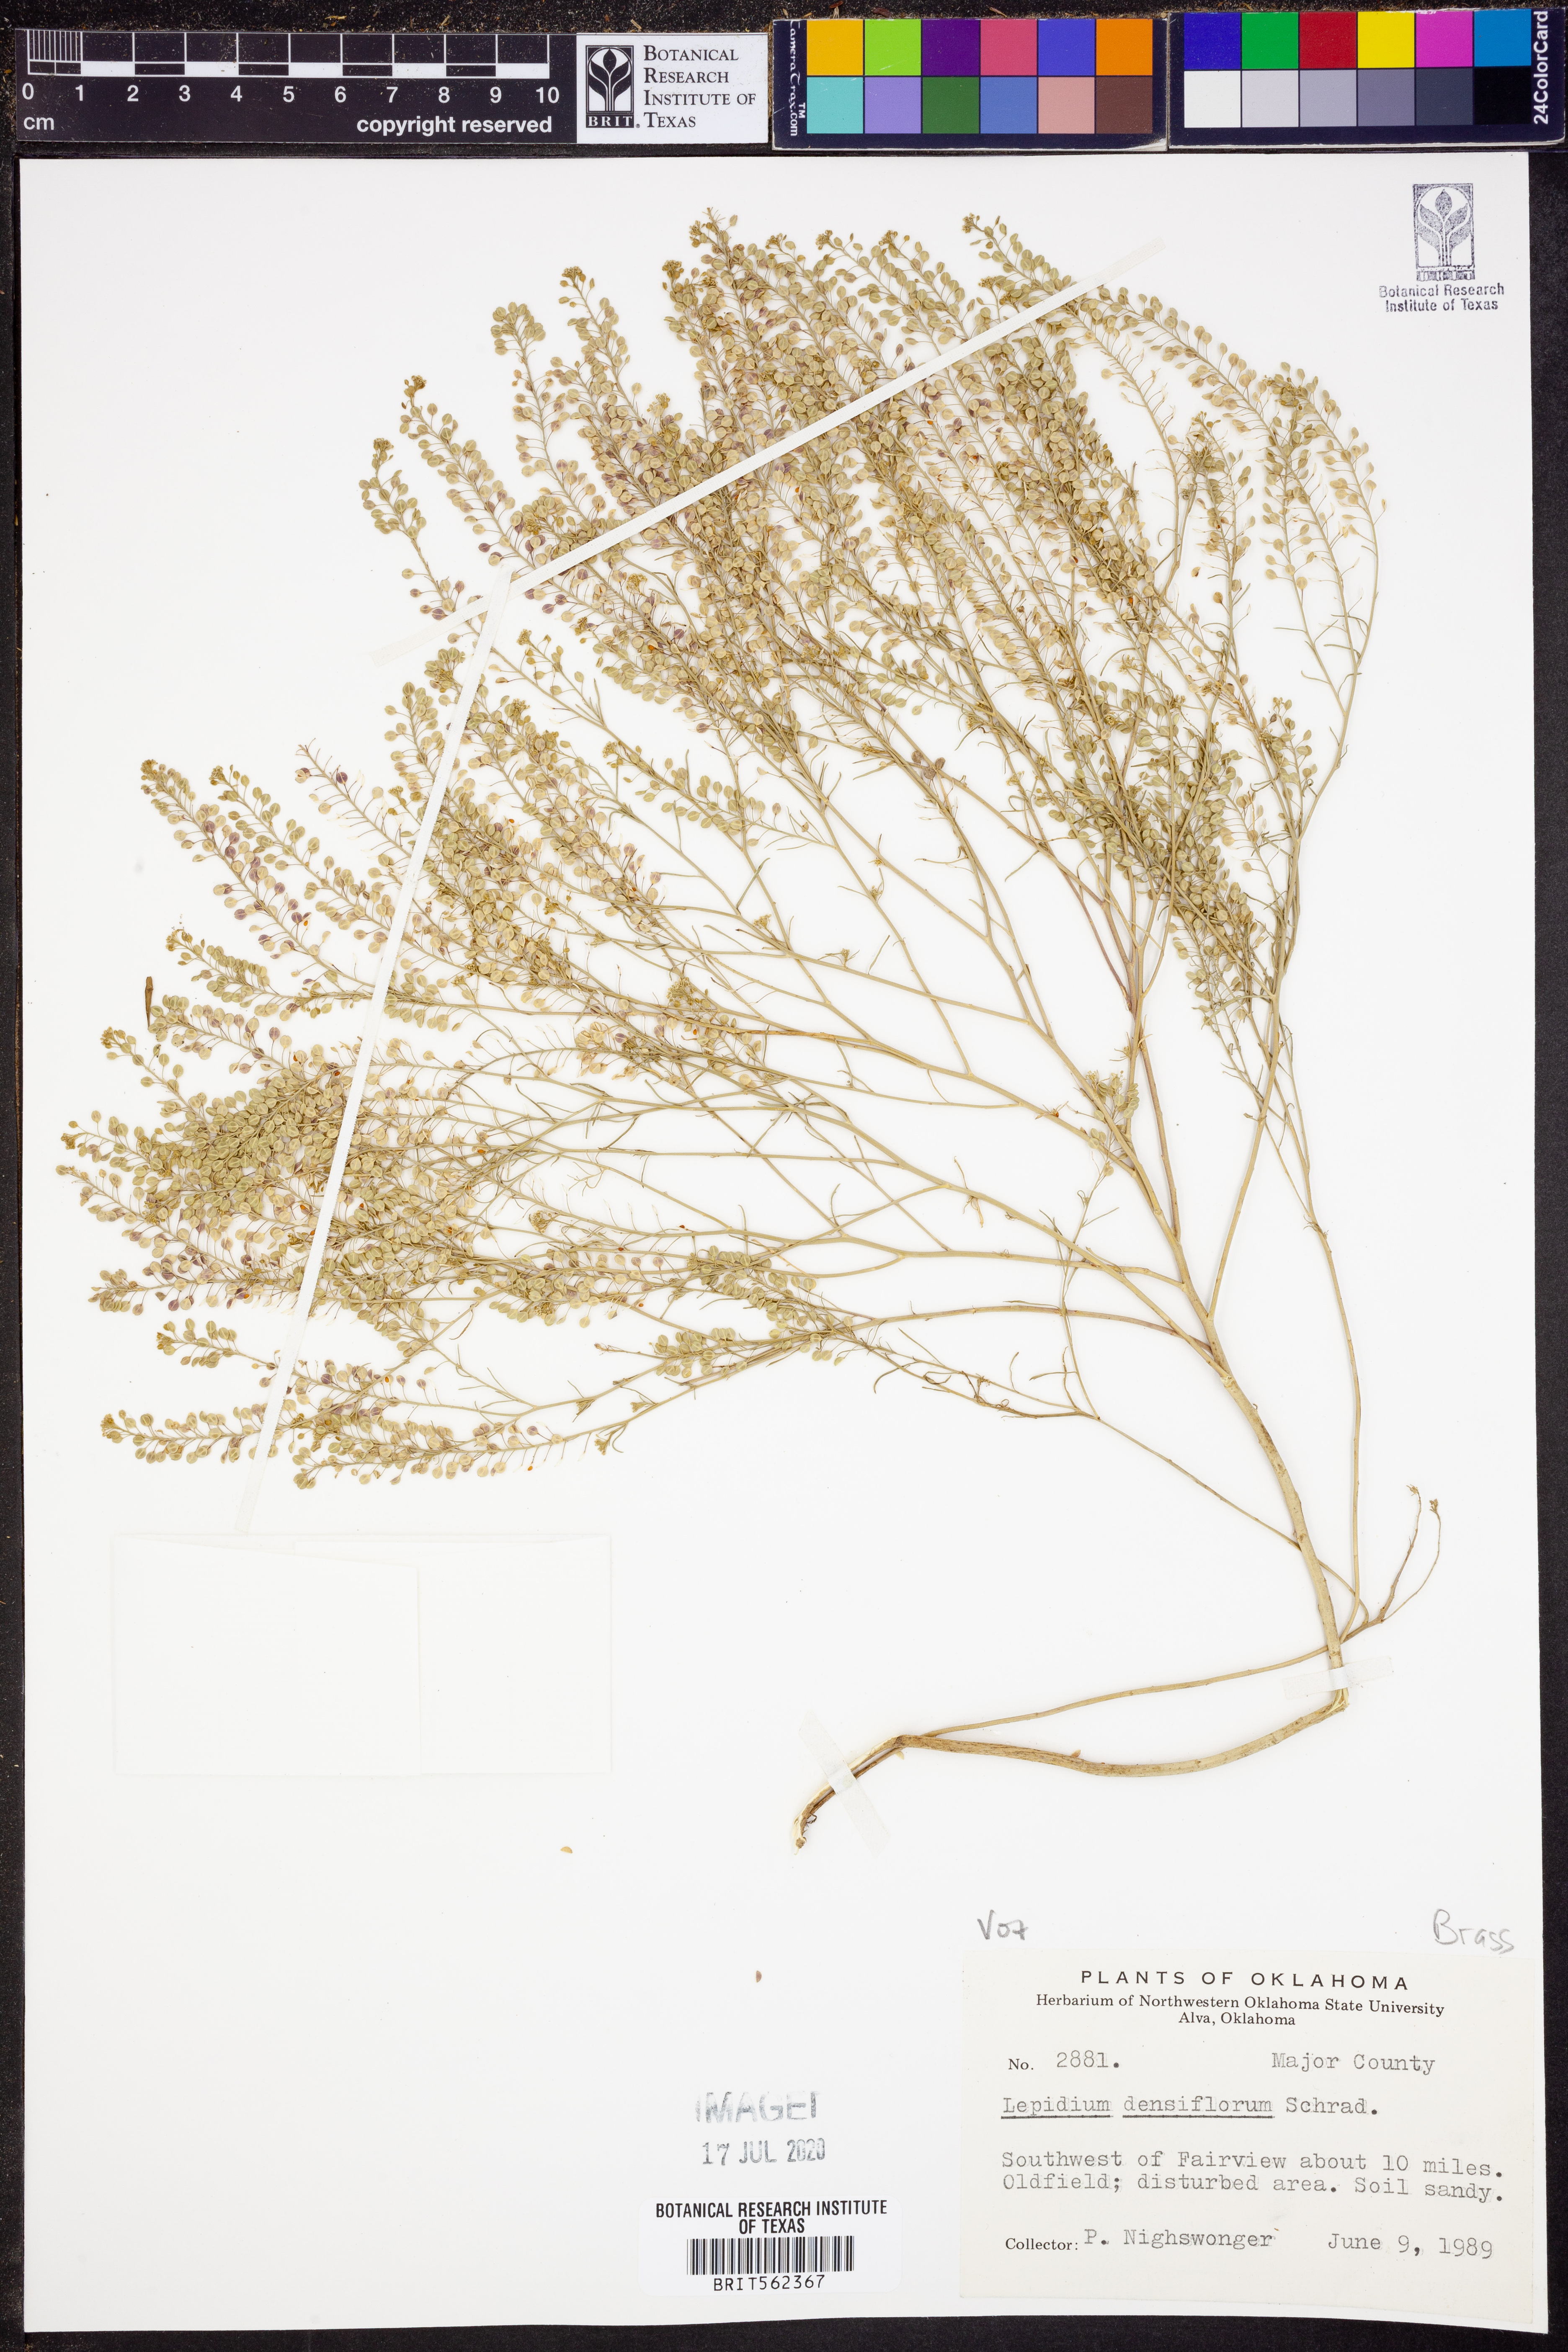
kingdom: Plantae
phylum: Tracheophyta
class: Magnoliopsida
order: Brassicales
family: Brassicaceae
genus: Lepidium
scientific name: Lepidium densiflorum
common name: Miner's pepperwort
